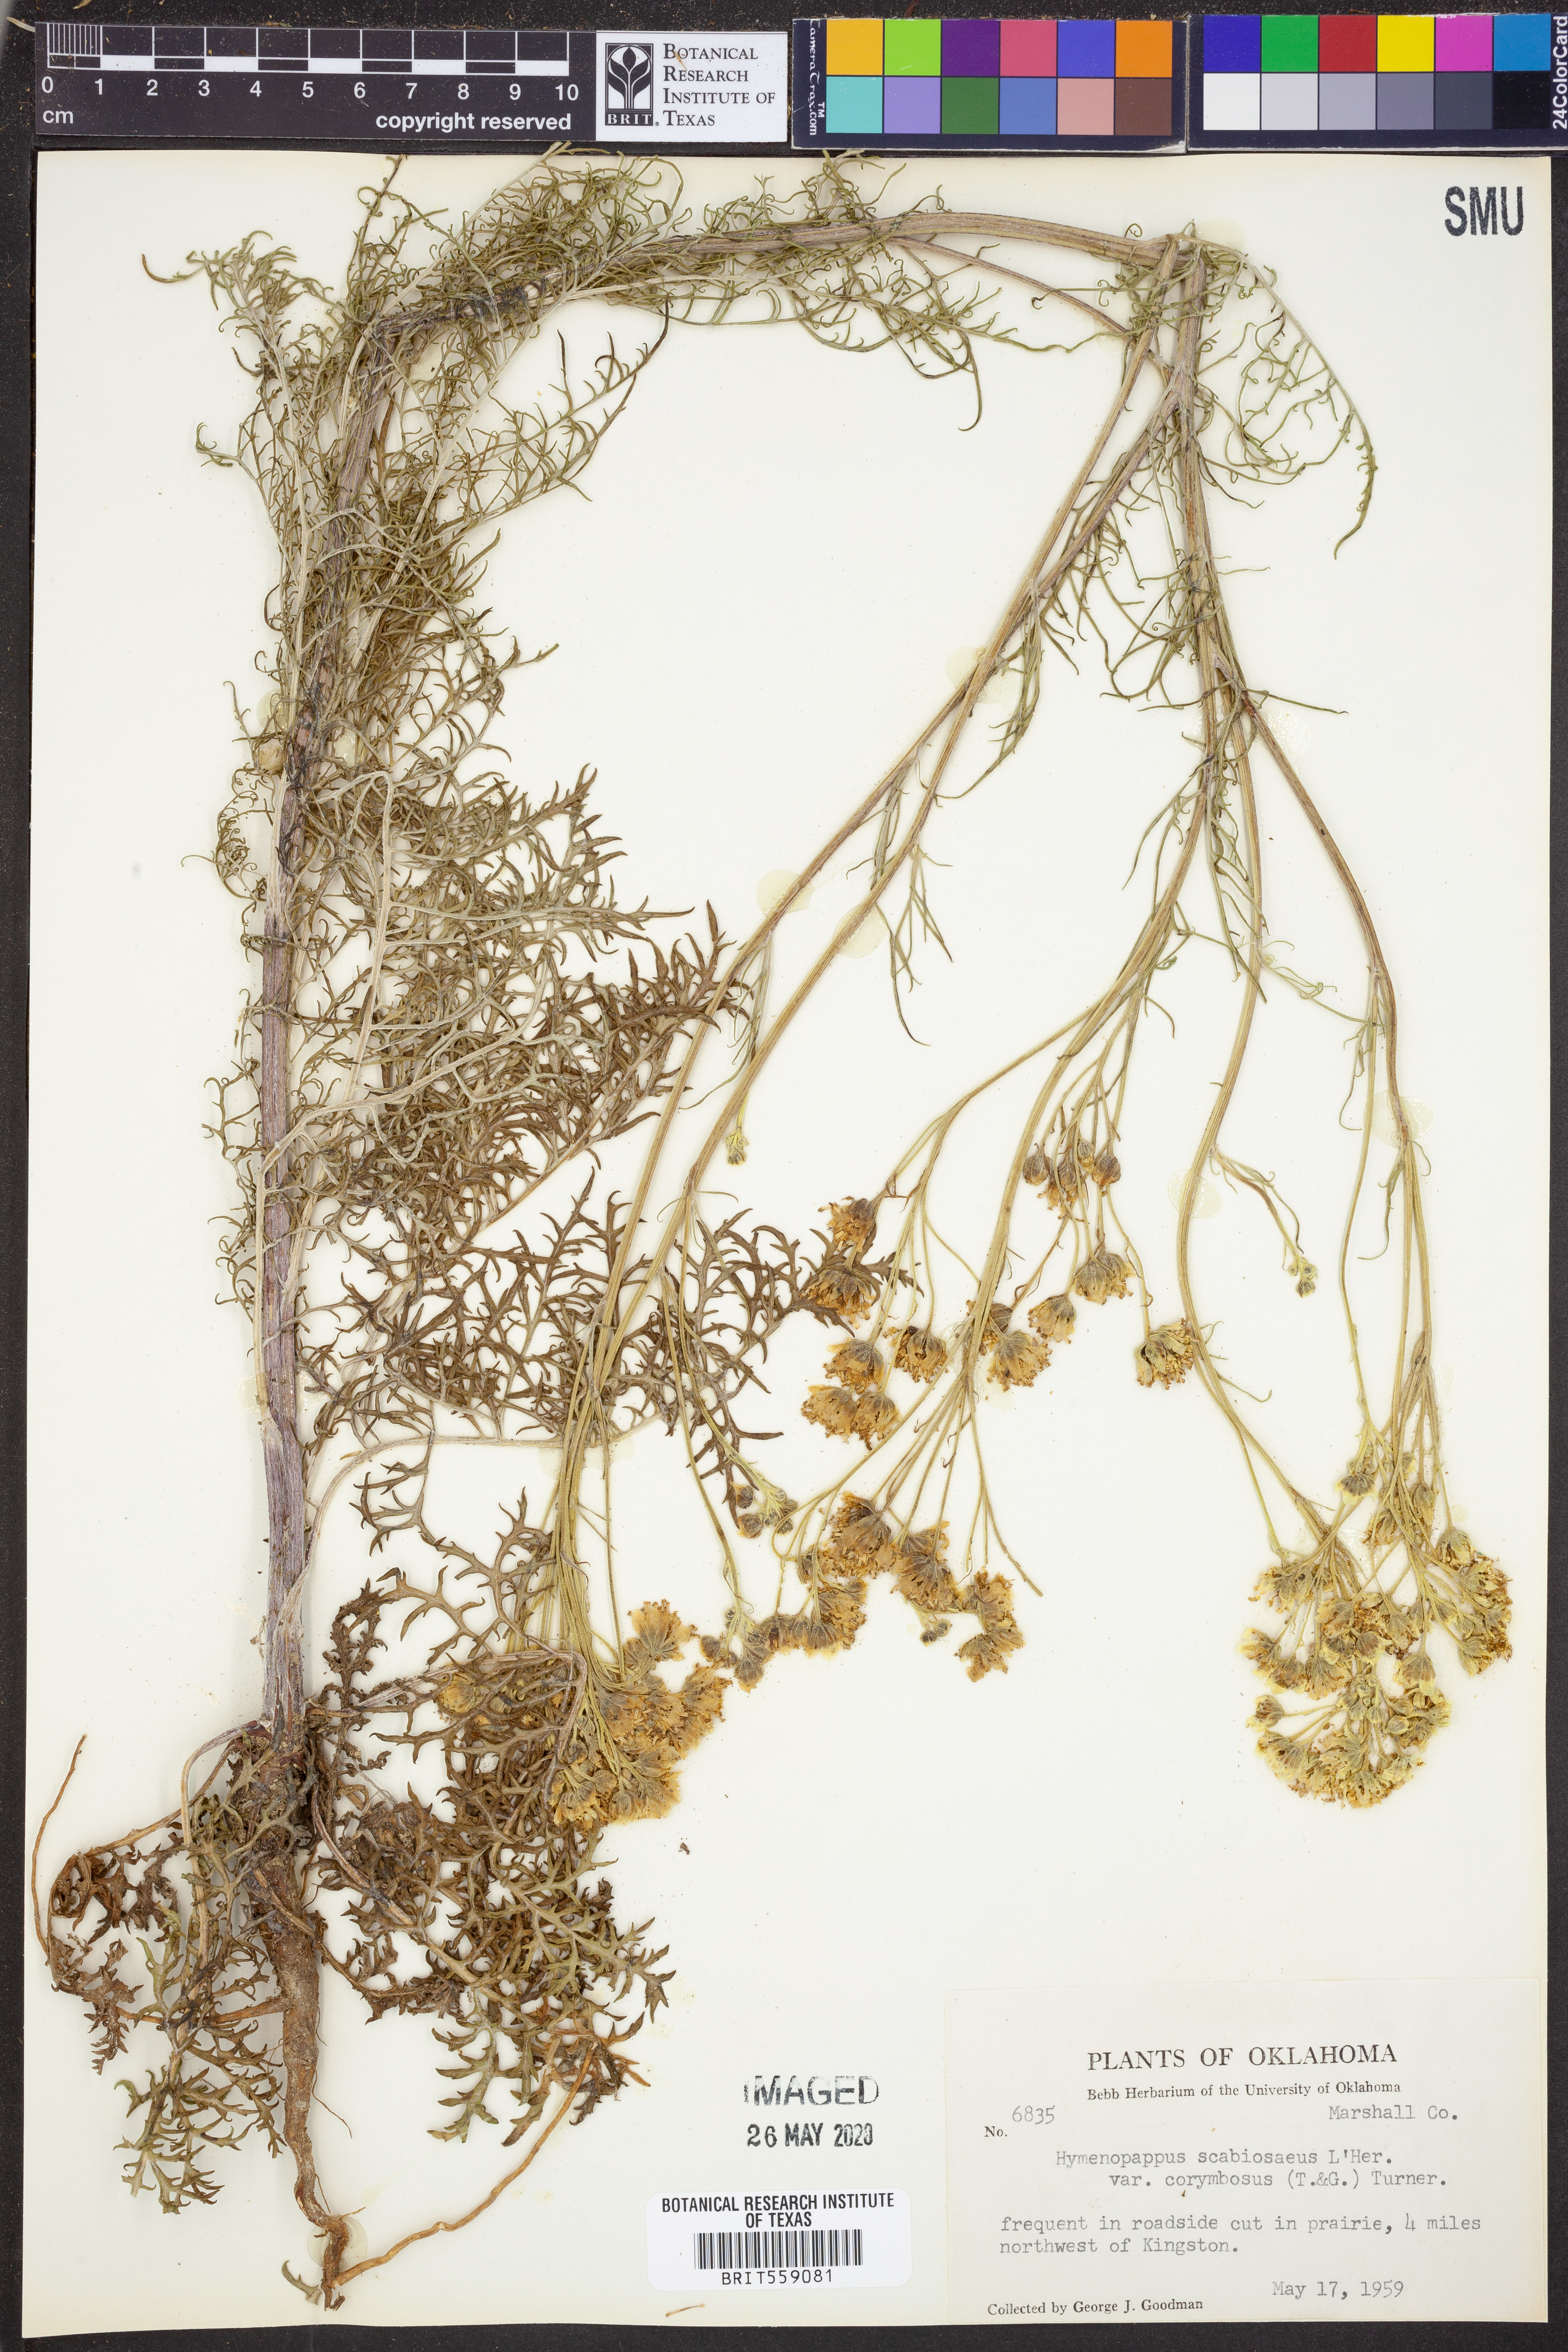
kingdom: Plantae
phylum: Tracheophyta
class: Magnoliopsida
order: Asterales
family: Asteraceae
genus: Hymenopappus
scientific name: Hymenopappus scabiosaeus
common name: Carolina woollywhite
